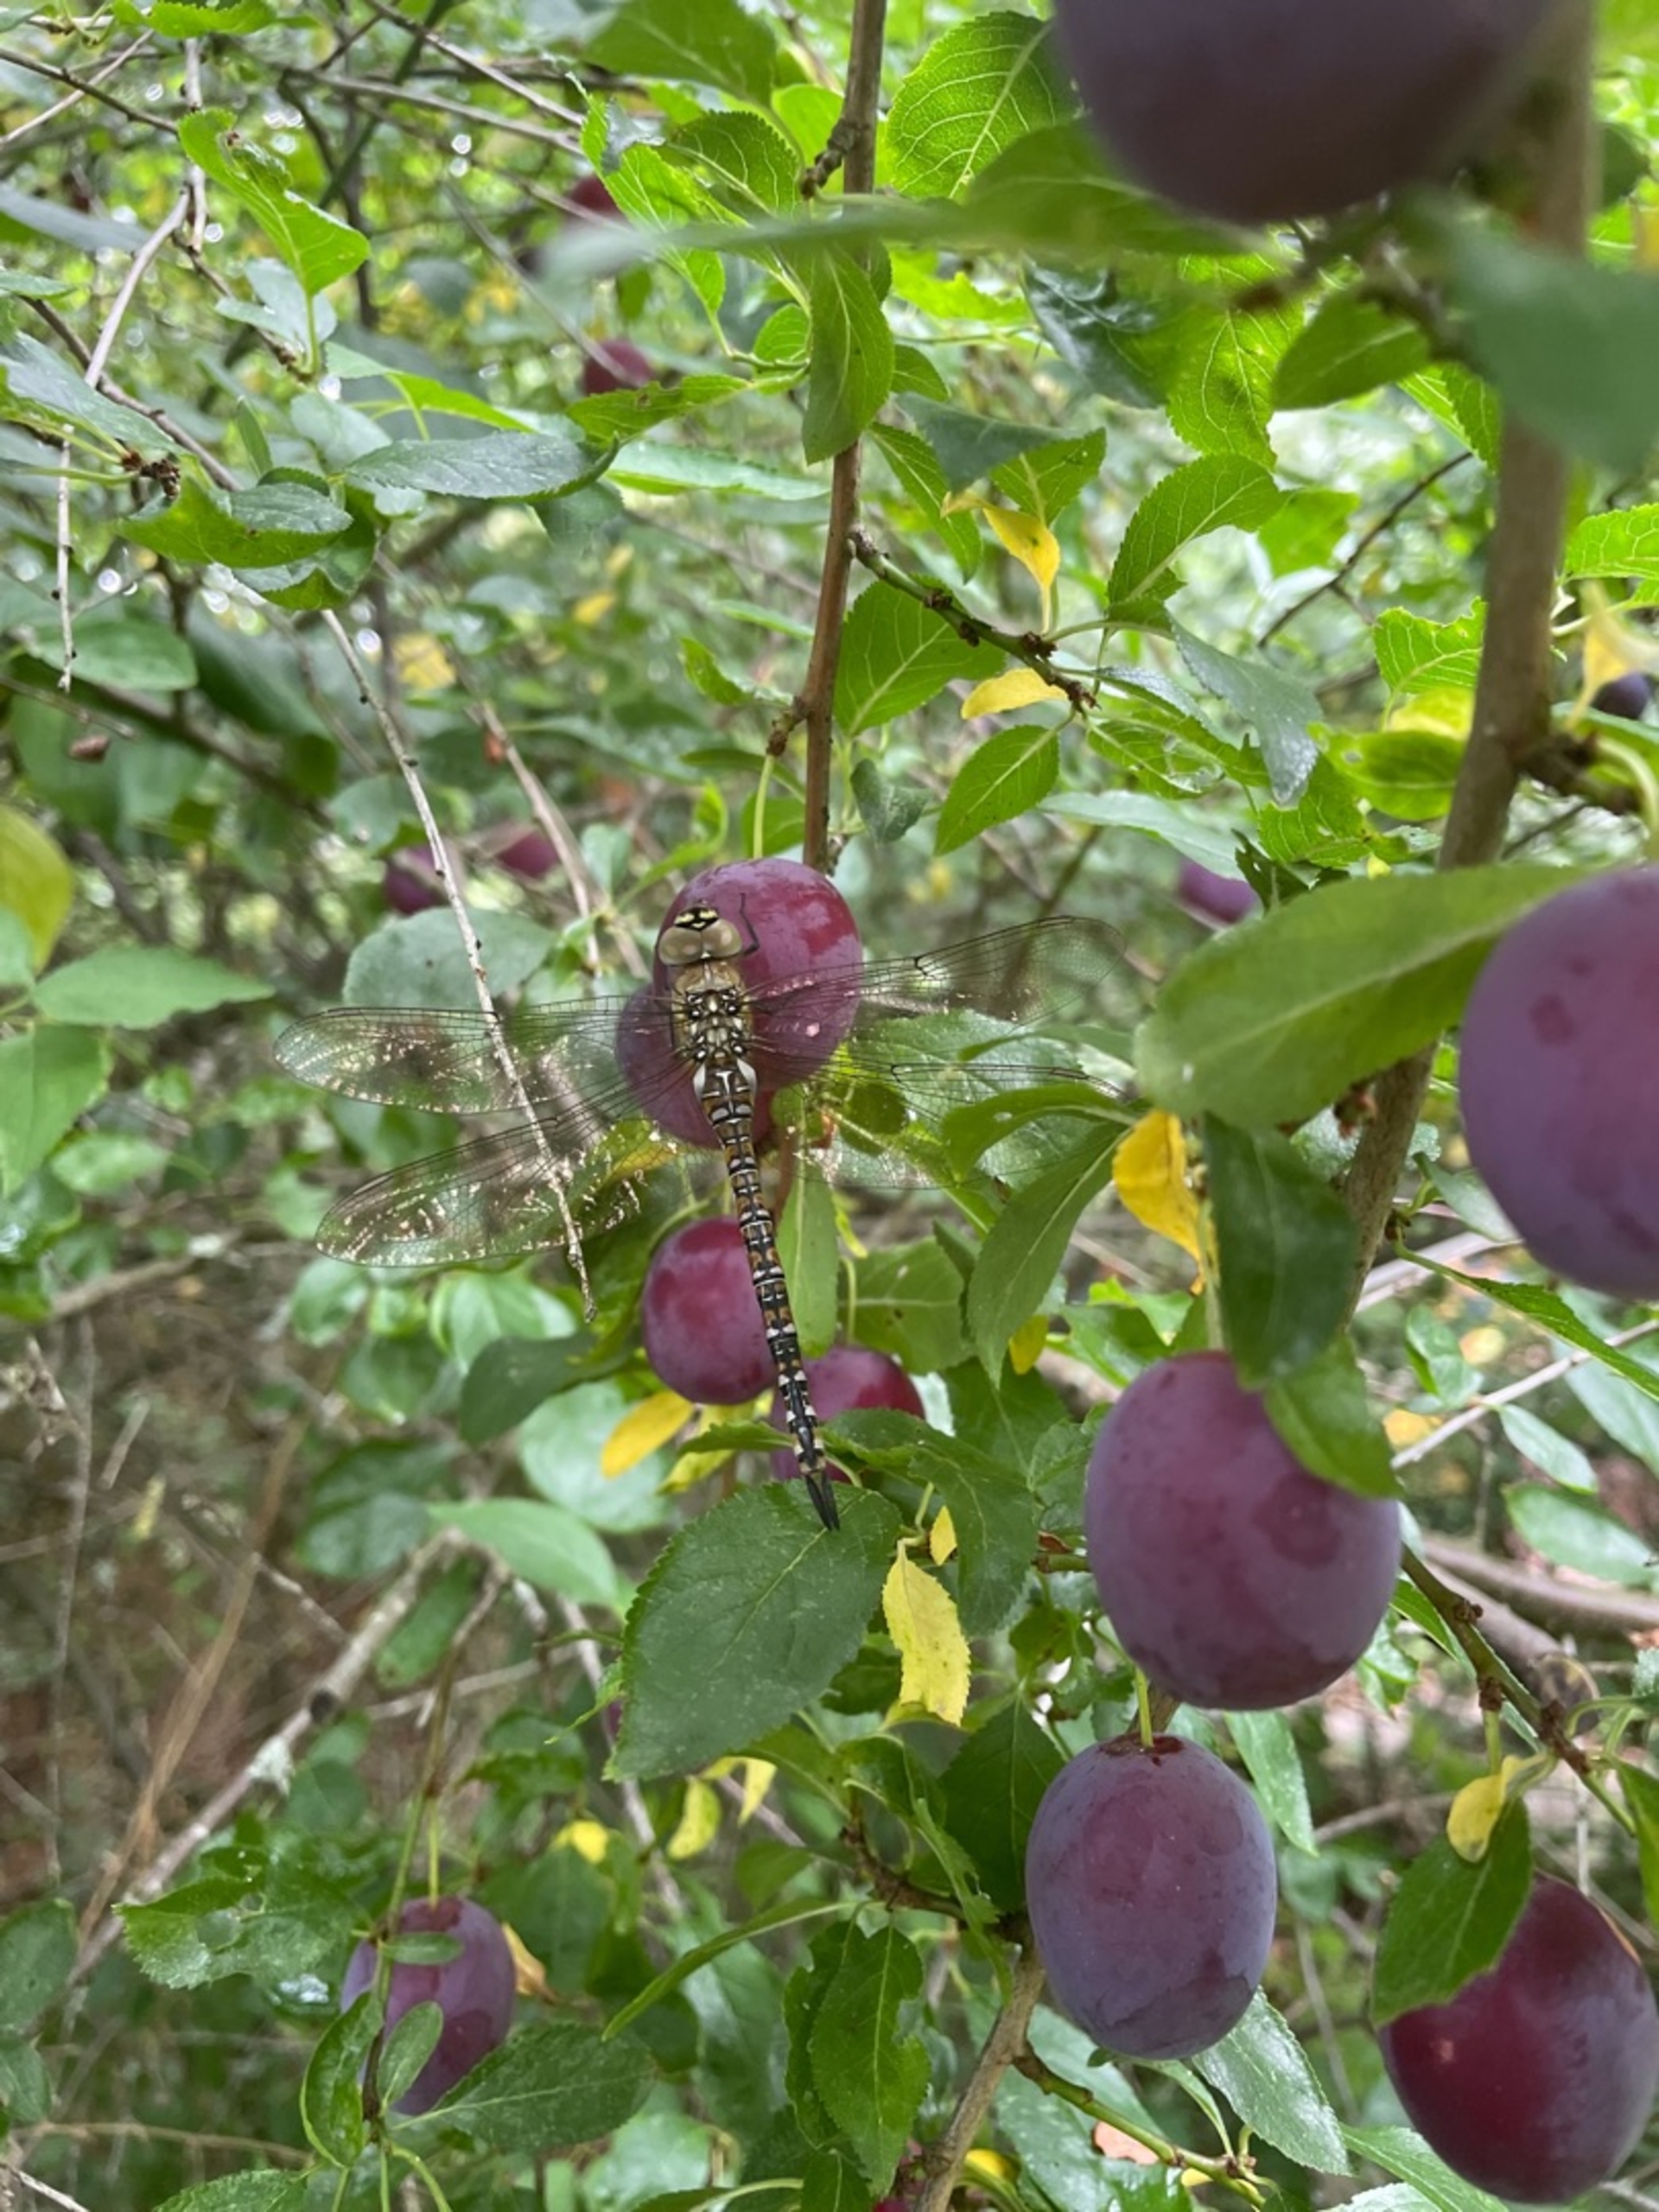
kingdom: Animalia
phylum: Arthropoda
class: Insecta
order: Odonata
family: Aeshnidae
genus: Aeshna
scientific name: Aeshna mixta
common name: Efterårs-mosaikguldsmed
